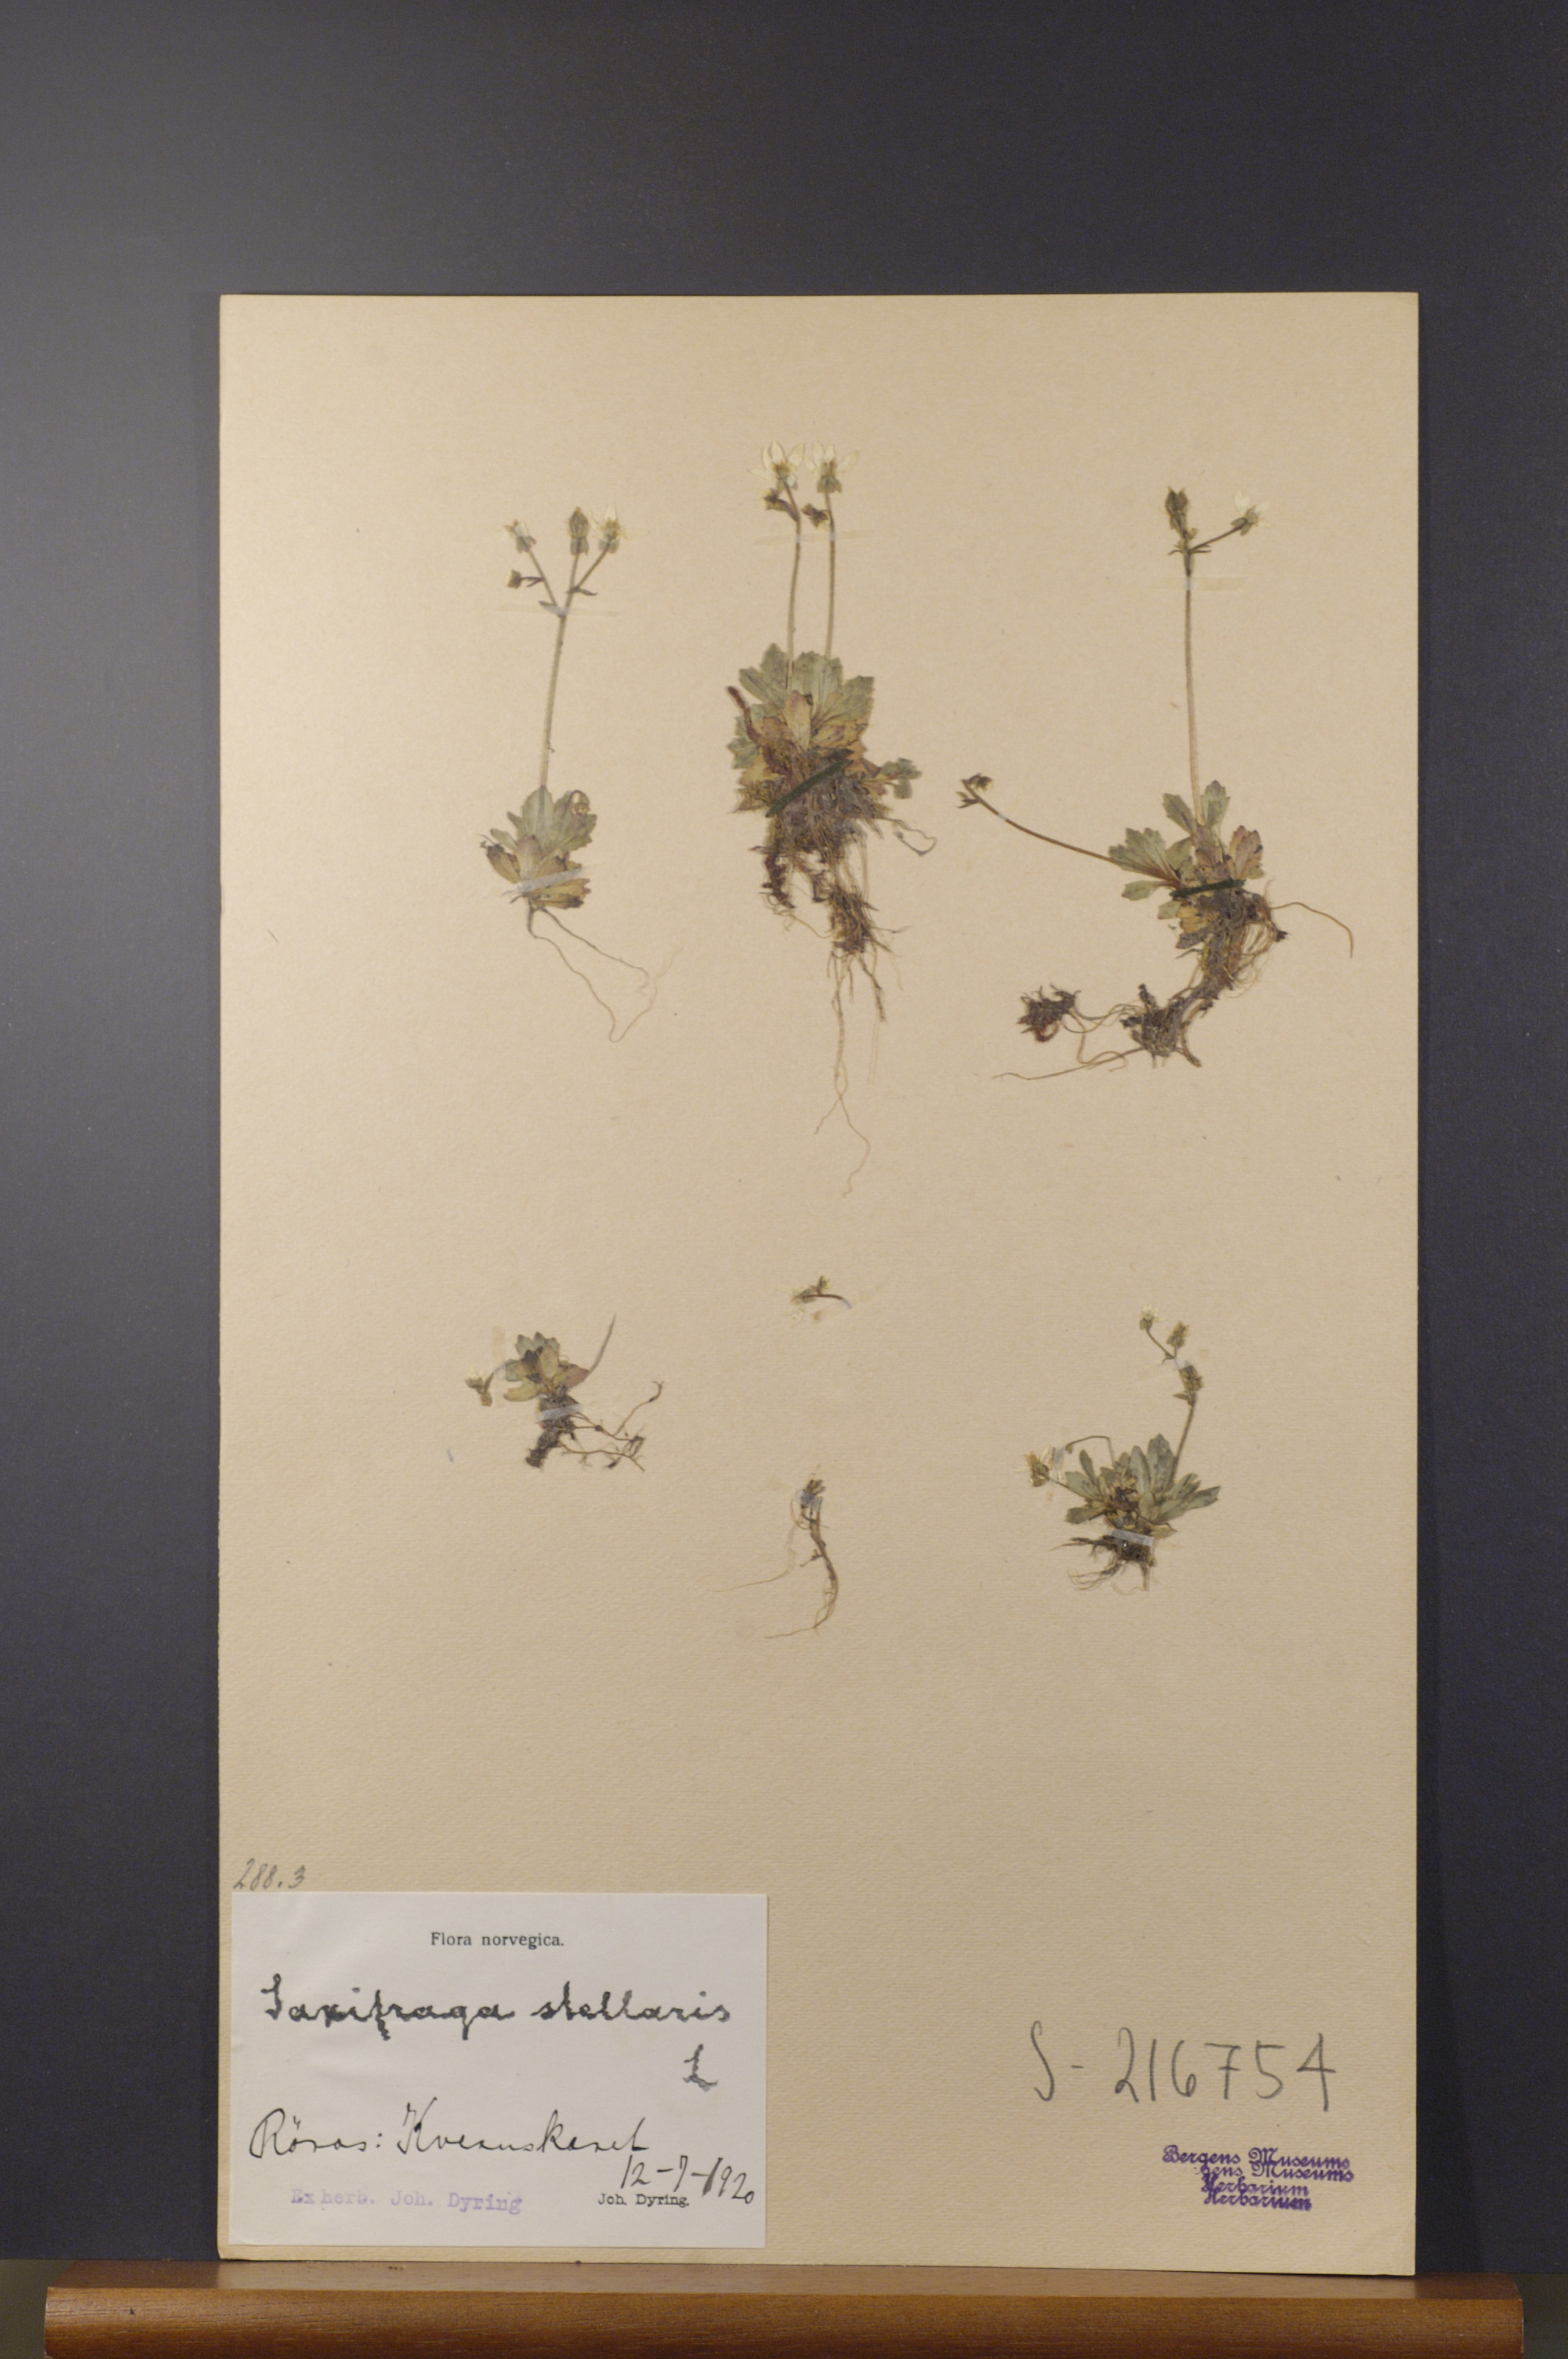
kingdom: Plantae
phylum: Tracheophyta
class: Magnoliopsida
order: Saxifragales
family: Saxifragaceae
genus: Micranthes
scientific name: Micranthes stellaris
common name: Starry saxifrage
